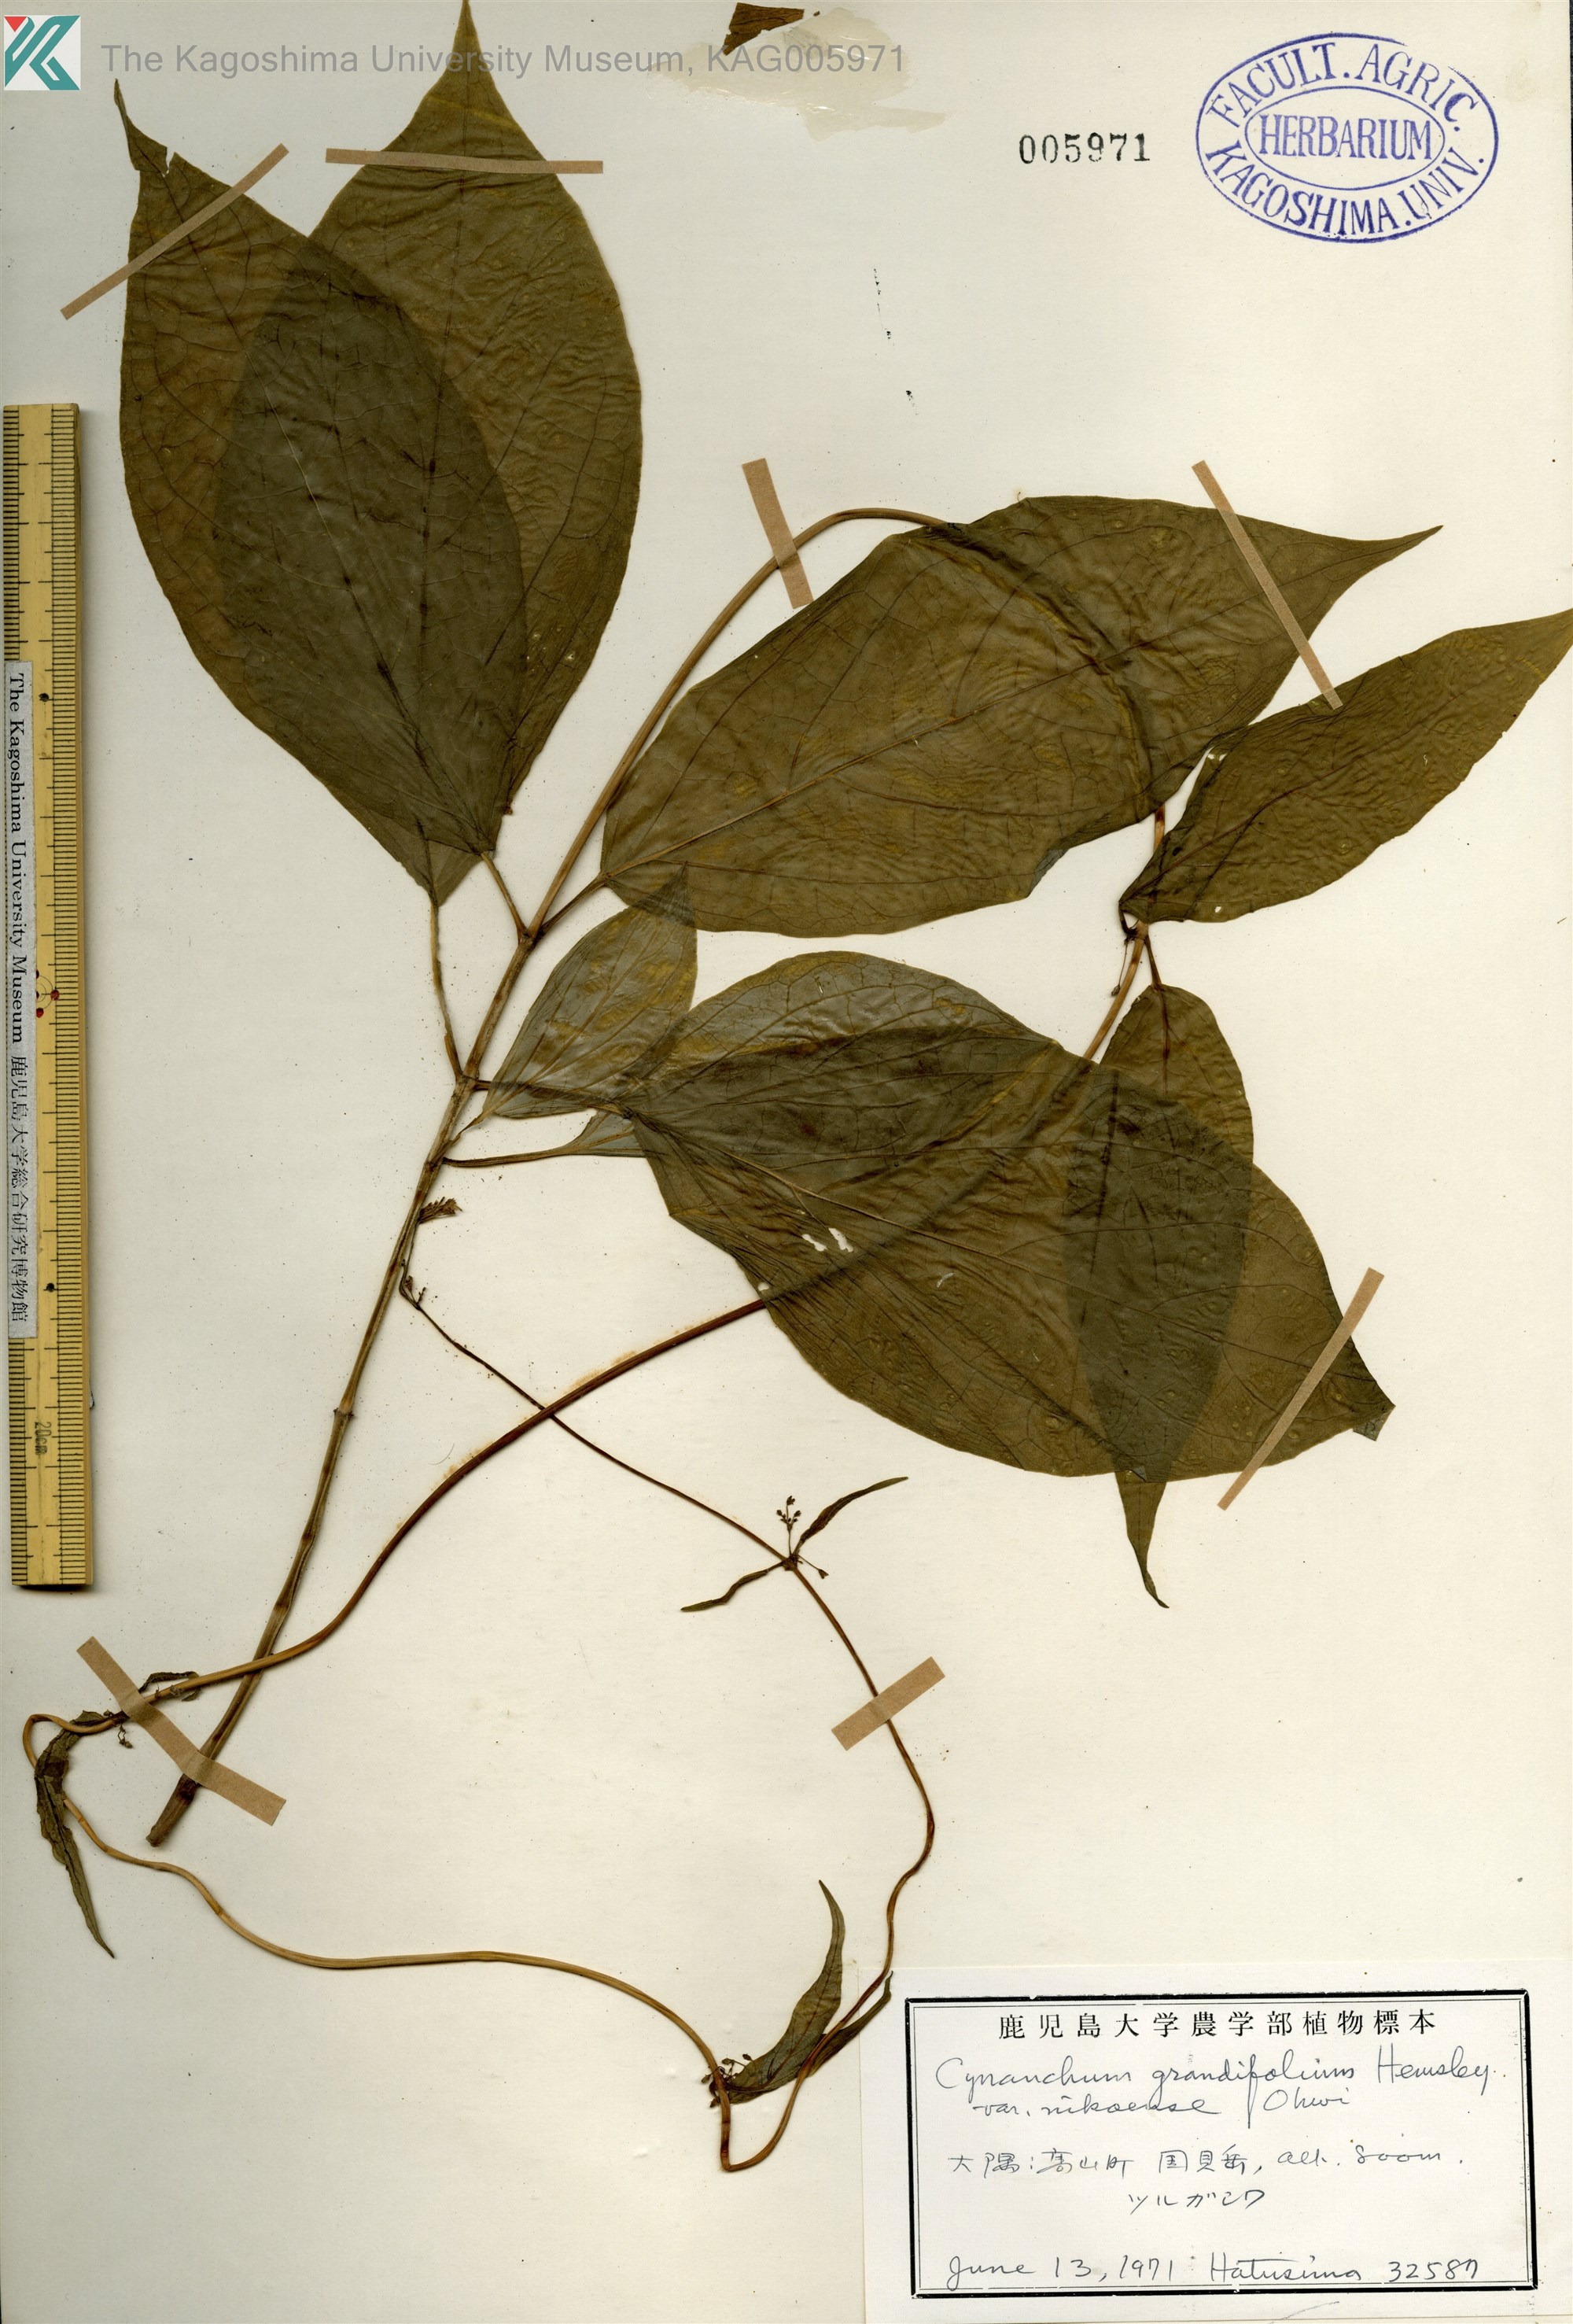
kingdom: Plantae
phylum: Tracheophyta
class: Magnoliopsida
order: Gentianales
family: Apocynaceae
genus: Vincetoxicum
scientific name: Vincetoxicum inamoenum
